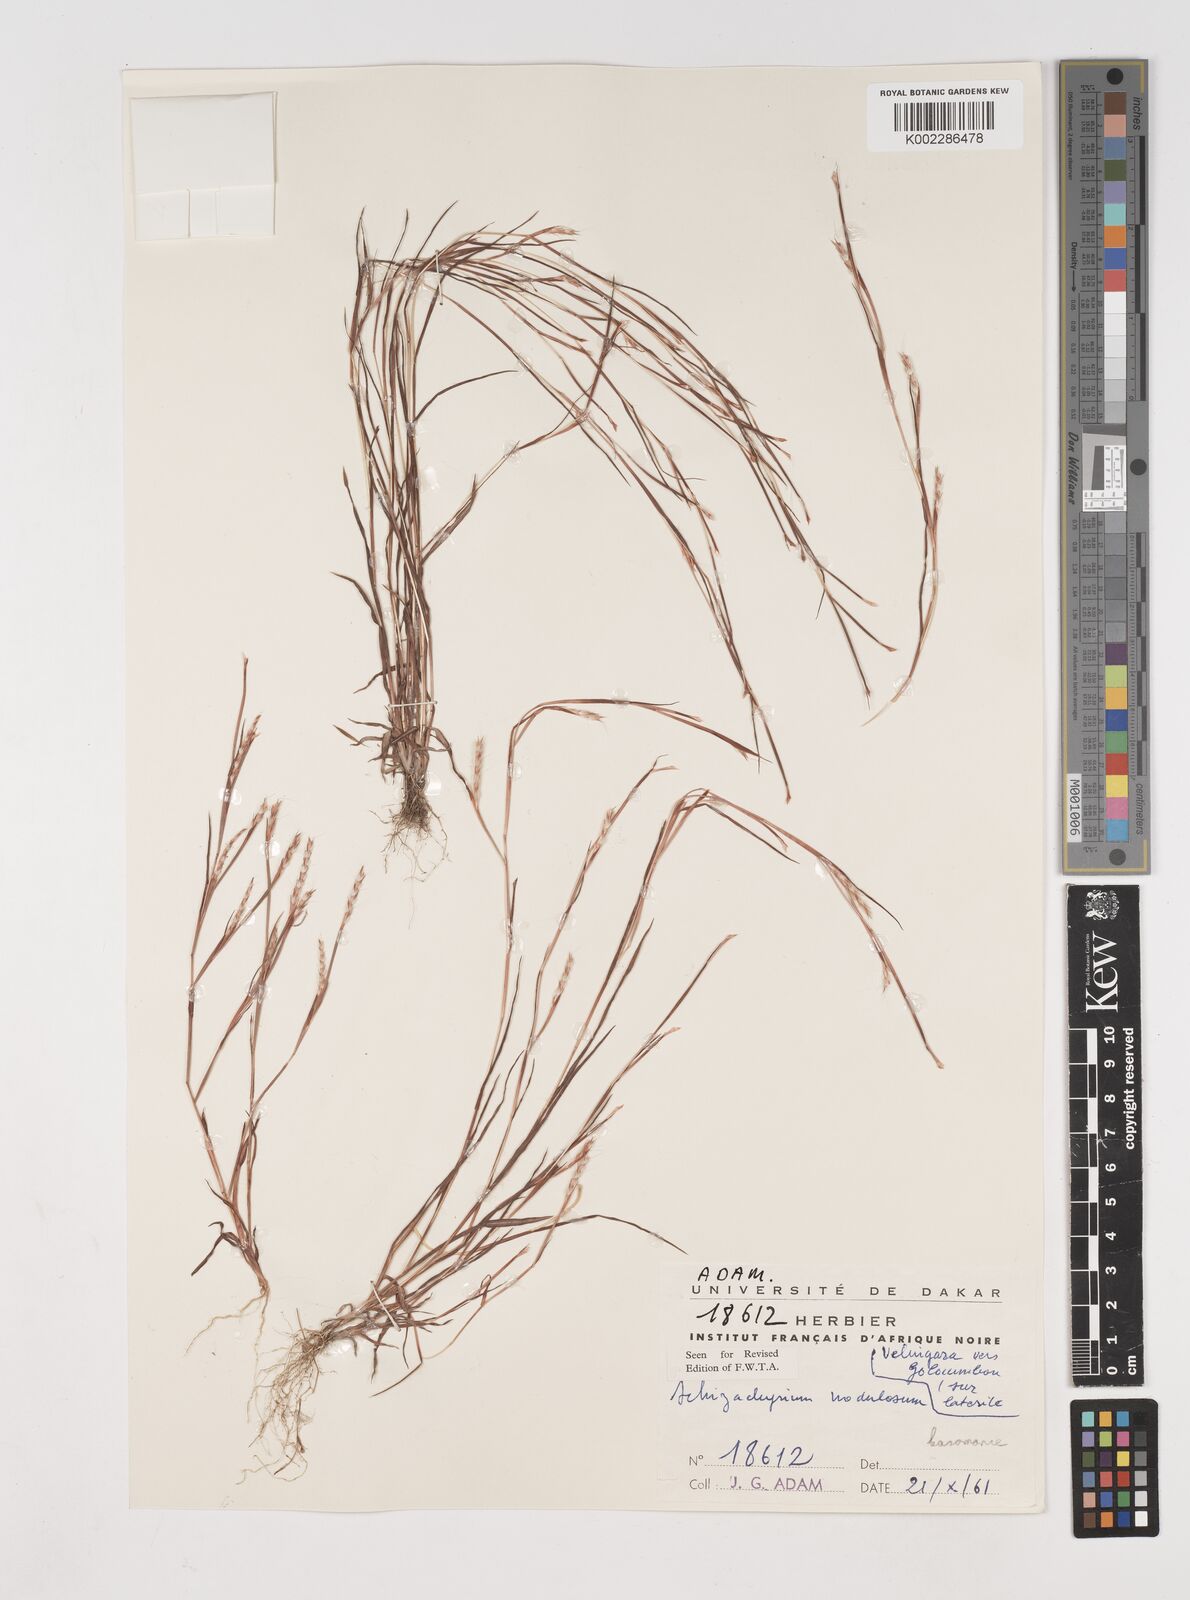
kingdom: Plantae
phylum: Tracheophyta
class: Liliopsida
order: Poales
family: Poaceae
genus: Schizachyrium
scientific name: Schizachyrium nodulosum
